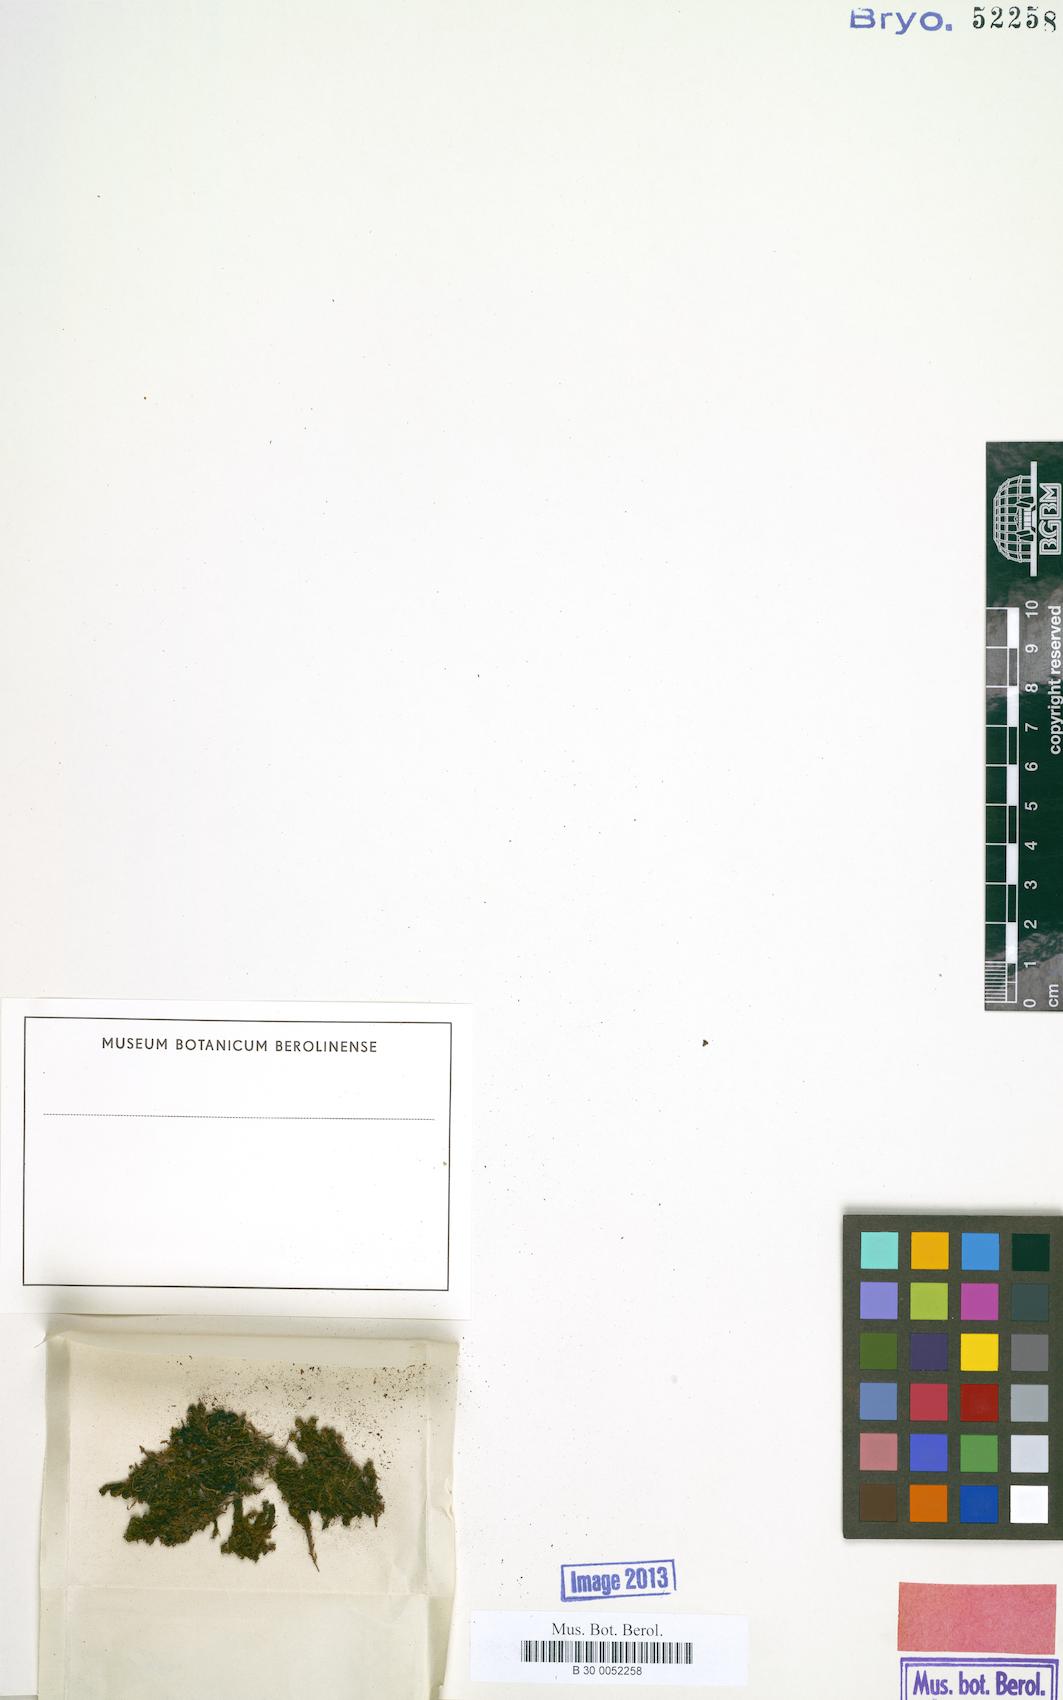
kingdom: Plantae
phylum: Bryophyta
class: Bryopsida
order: Pottiales
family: Pottiaceae
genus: Hyophila
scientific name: Hyophila guaraya
